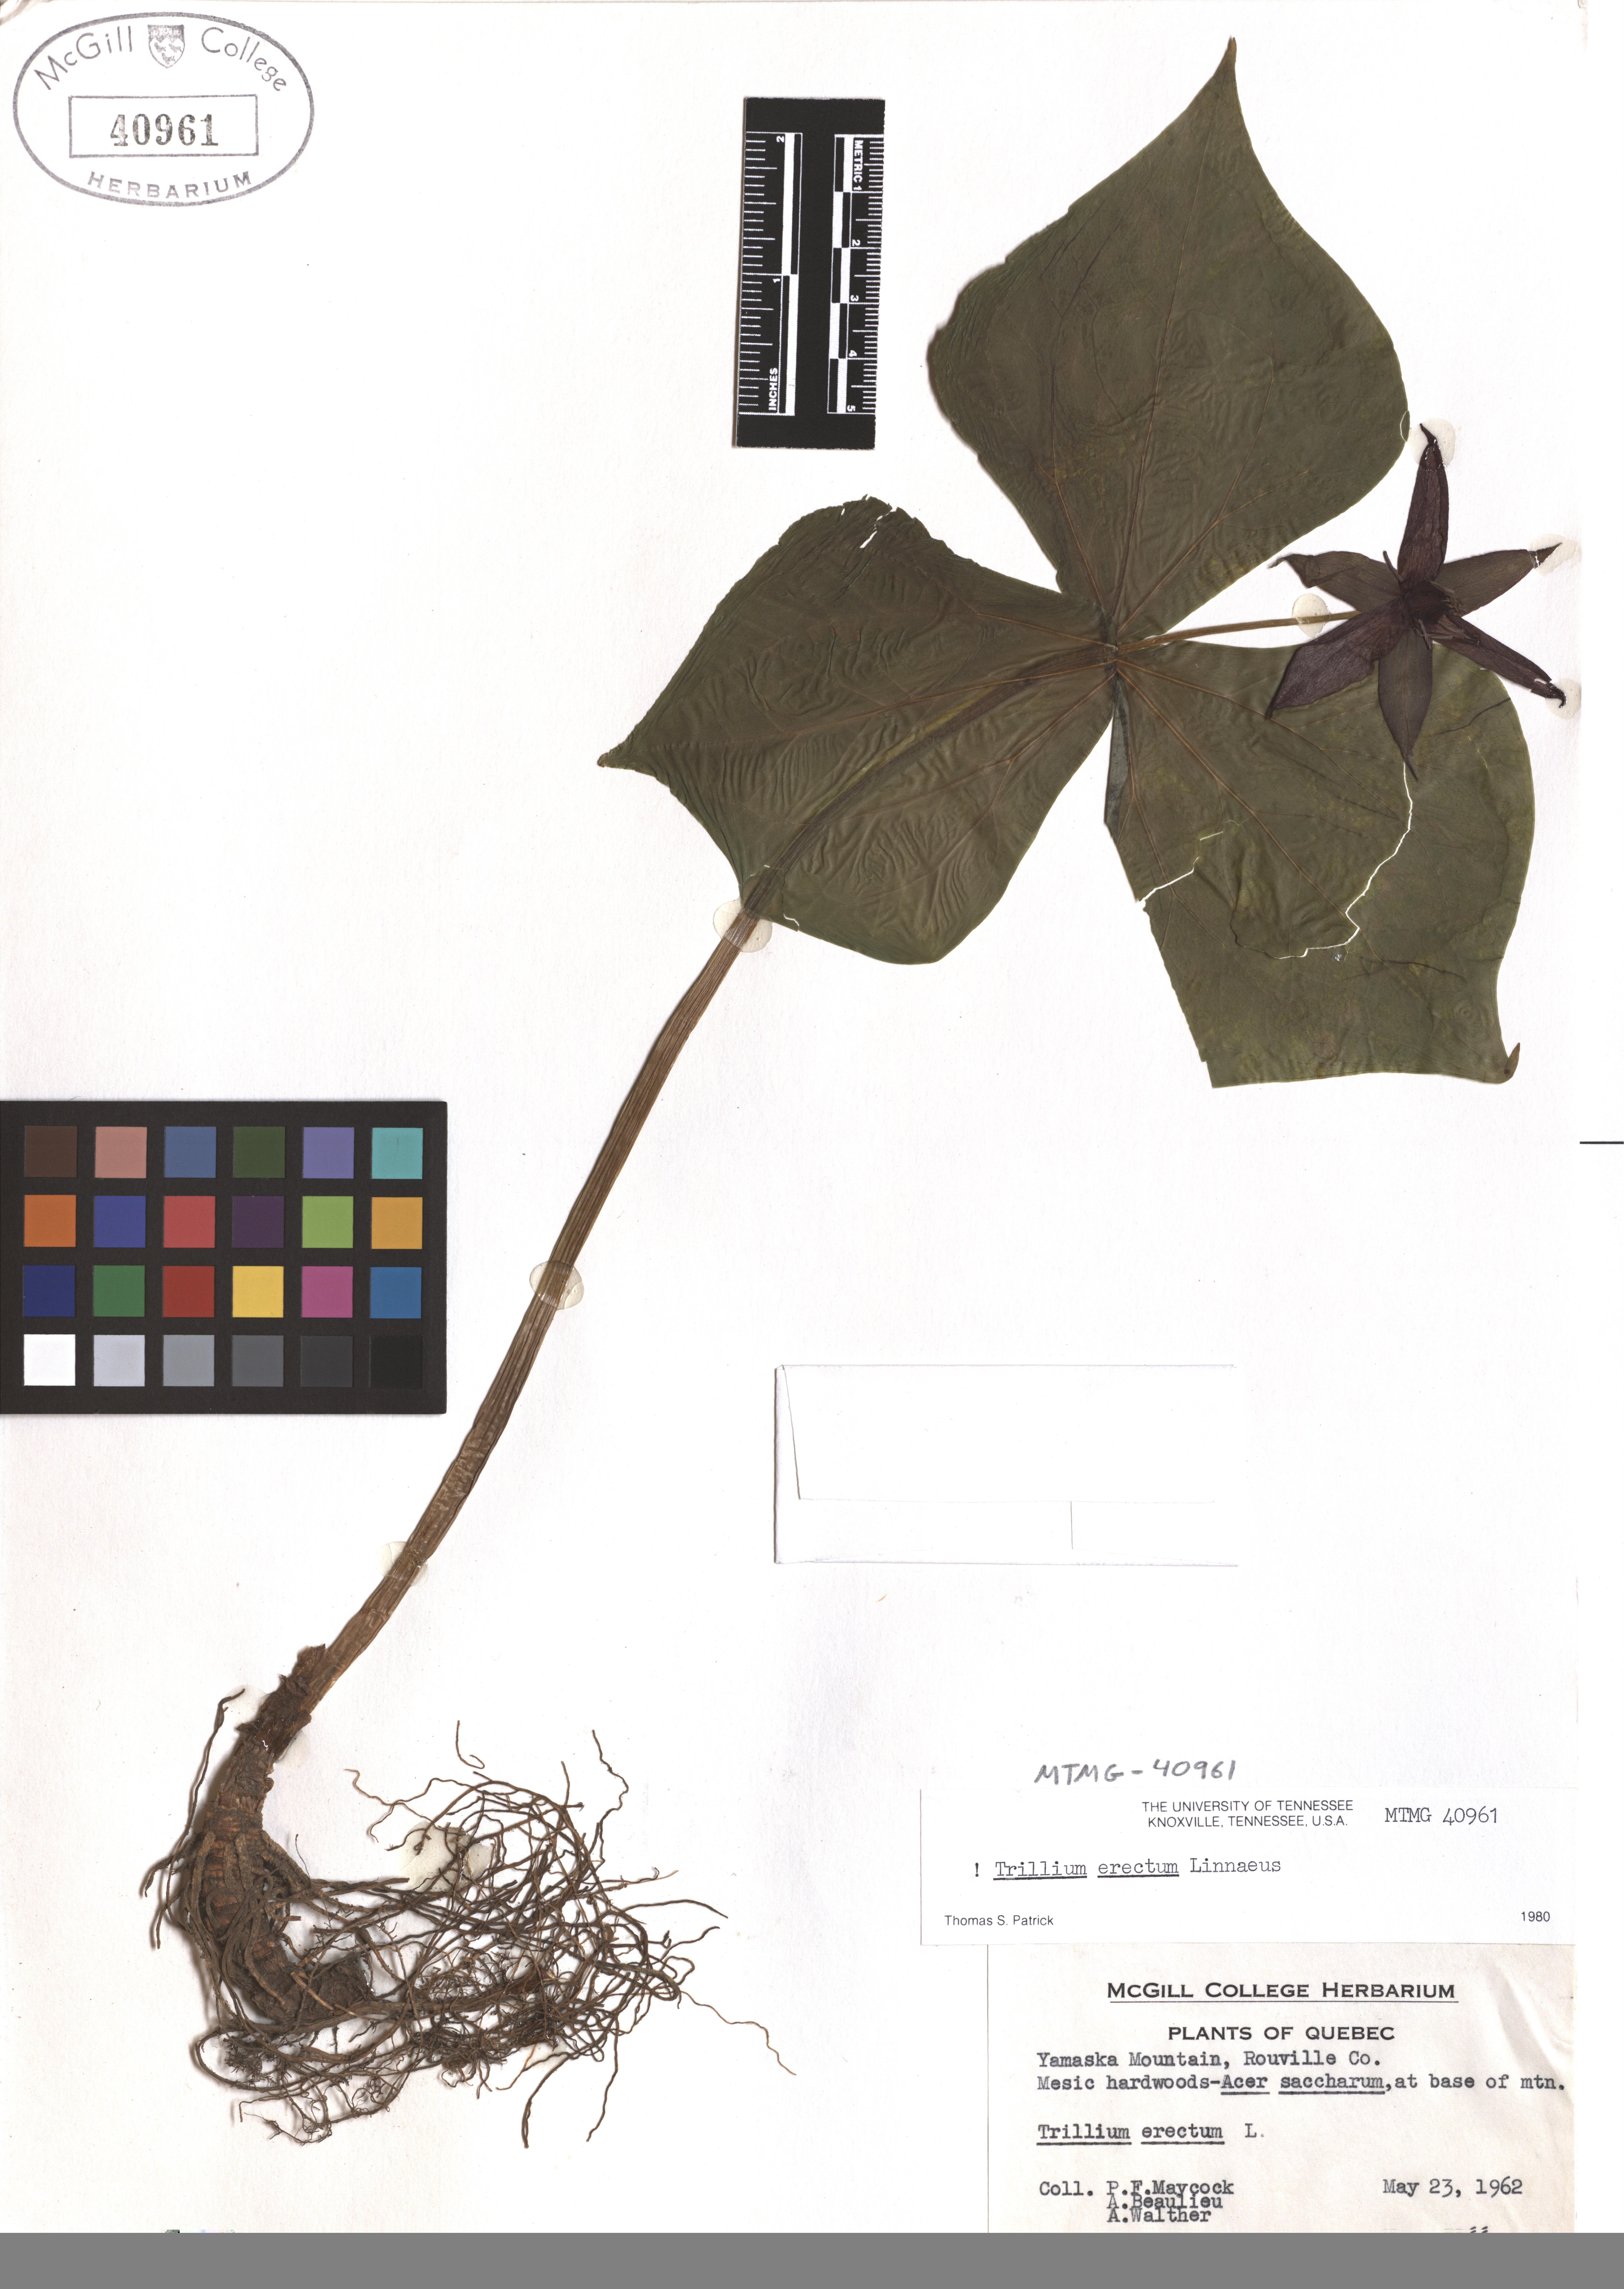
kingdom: Plantae
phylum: Tracheophyta
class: Liliopsida
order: Liliales
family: Melanthiaceae
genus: Trillium
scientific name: Trillium erectum
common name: Purple trillium
